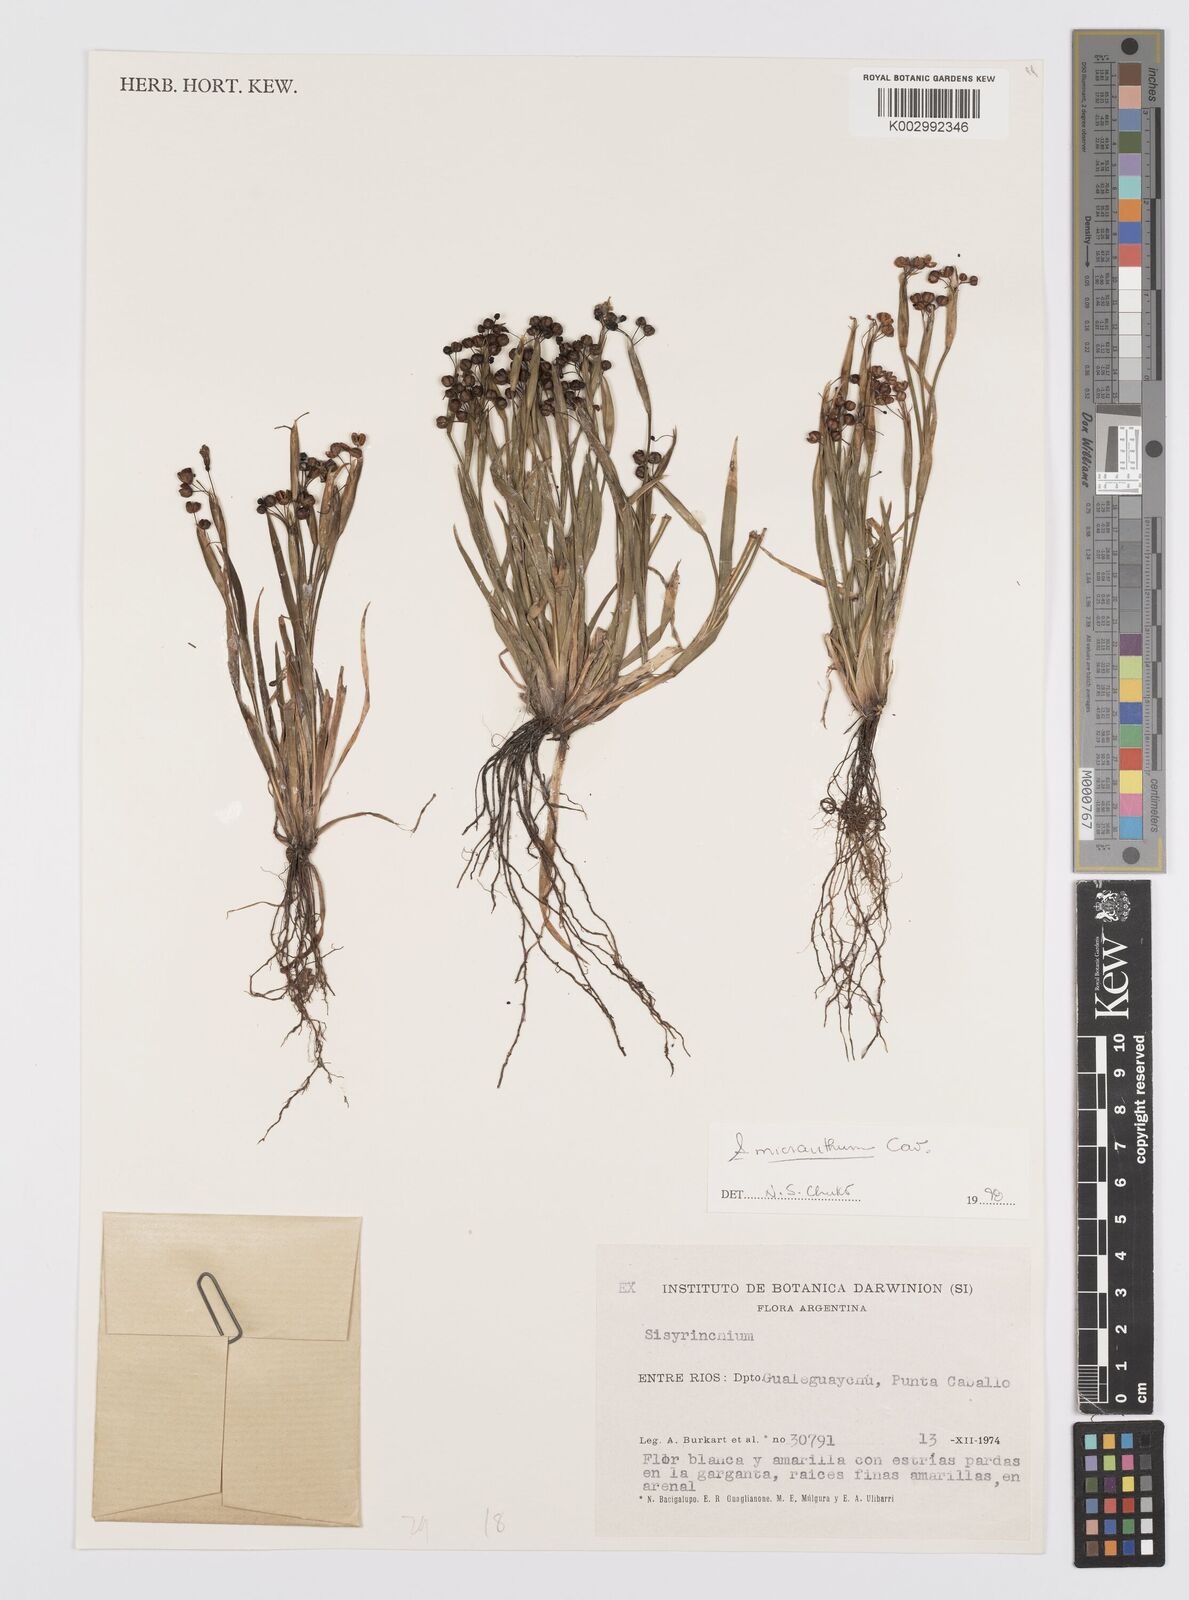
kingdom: Plantae
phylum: Tracheophyta
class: Liliopsida
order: Asparagales
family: Iridaceae
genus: Sisyrinchium
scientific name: Sisyrinchium micranthum
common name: Bermuda pigroot
